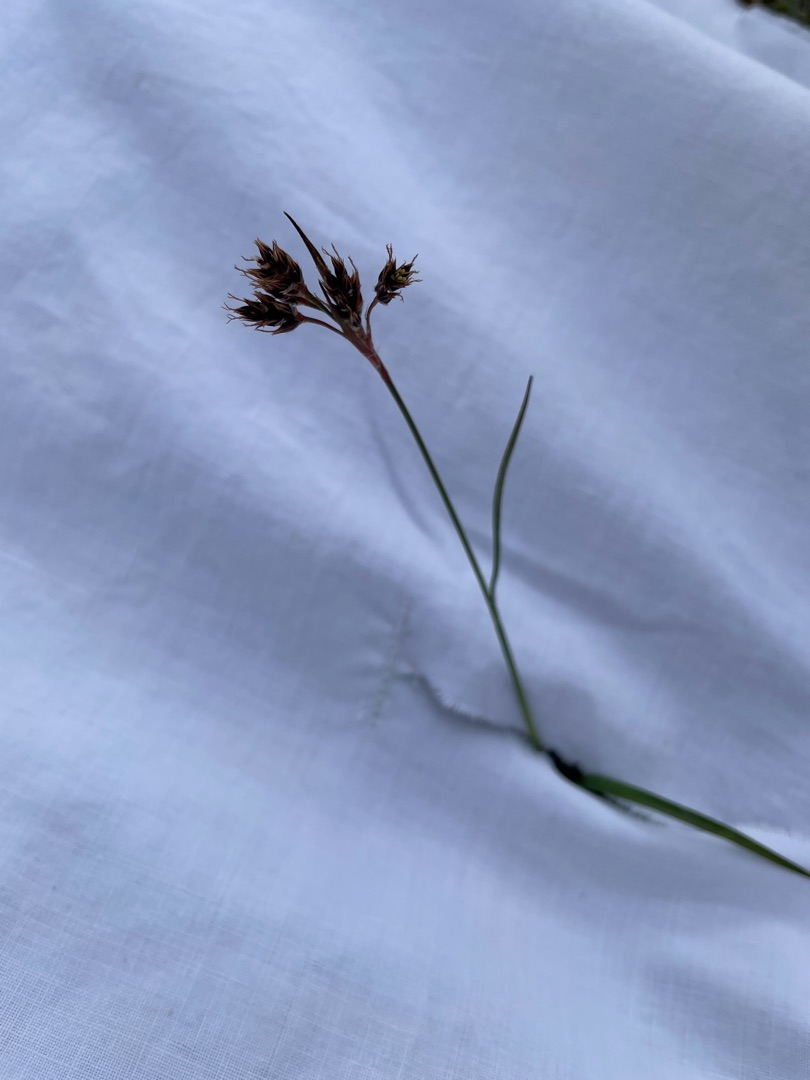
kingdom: Plantae
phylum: Tracheophyta
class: Liliopsida
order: Poales
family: Juncaceae
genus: Luzula
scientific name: Luzula campestris
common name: Mark-frytle
